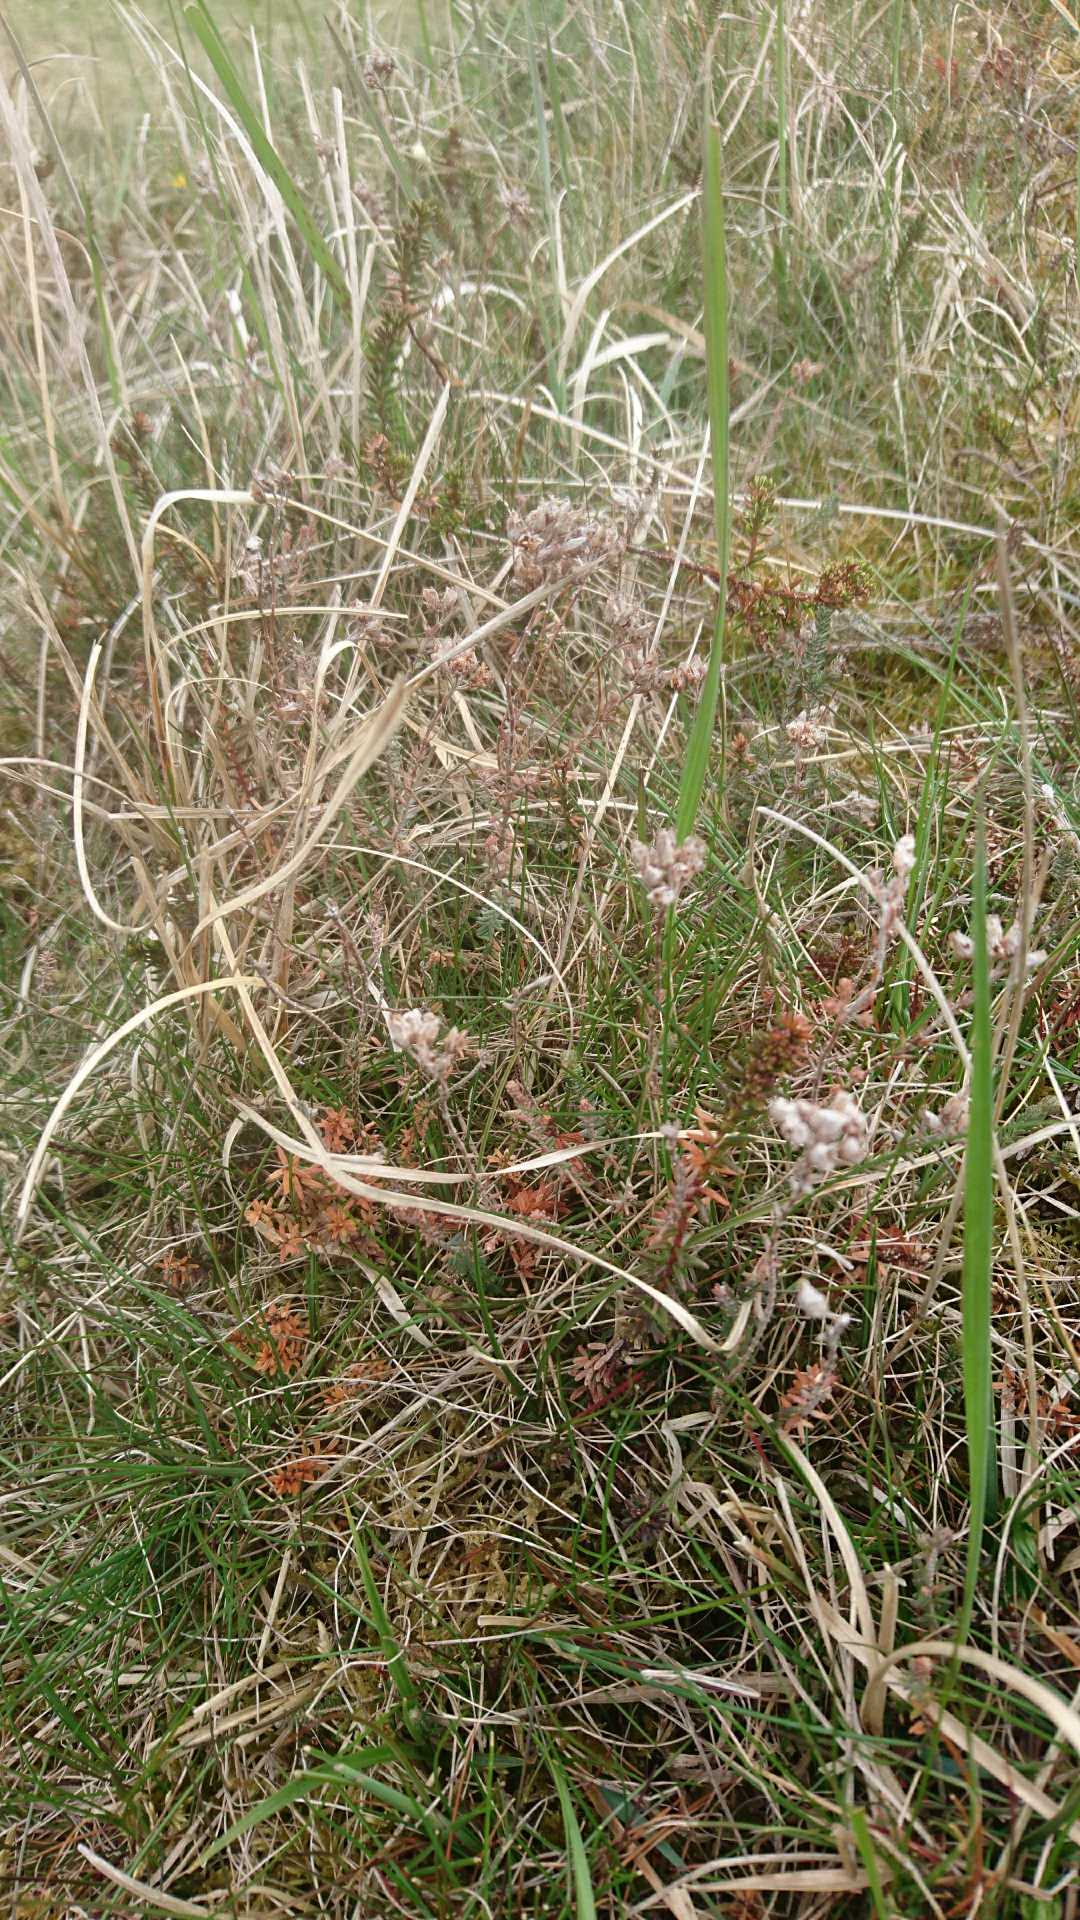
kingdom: Plantae
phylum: Tracheophyta
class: Magnoliopsida
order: Ericales
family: Ericaceae
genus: Erica
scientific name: Erica tetralix
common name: Klokkelyng
